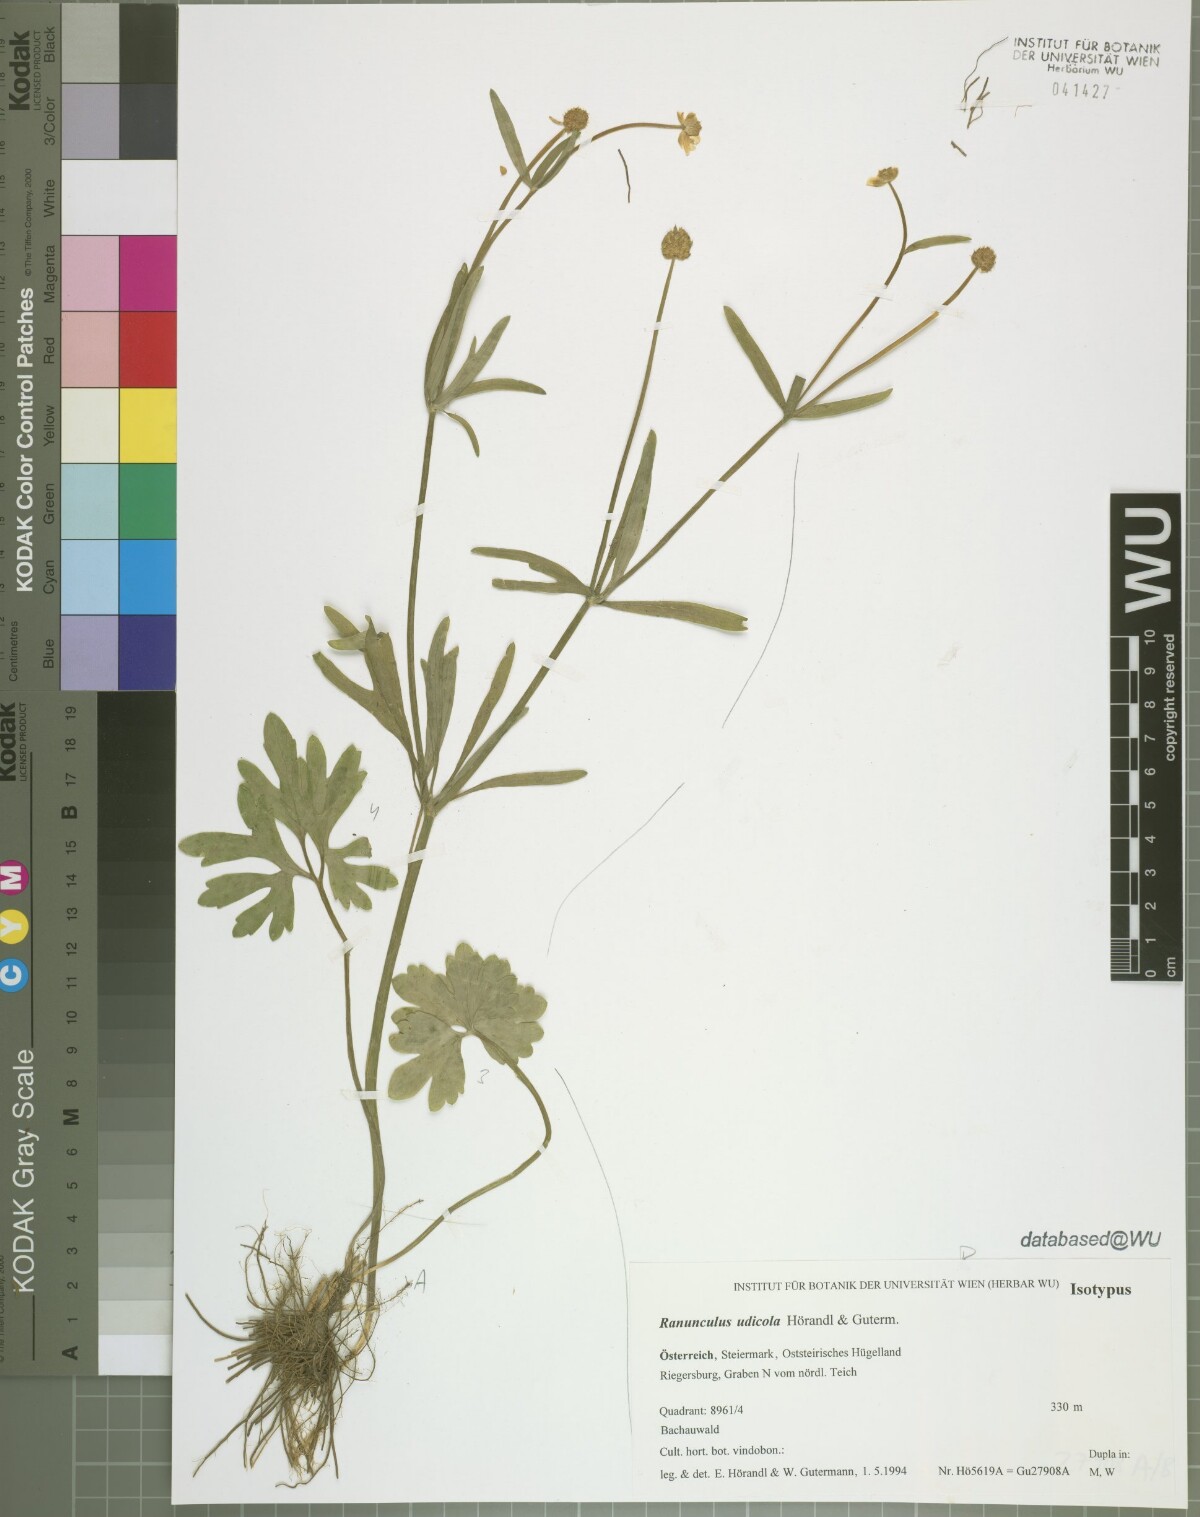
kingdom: Plantae
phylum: Tracheophyta
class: Magnoliopsida
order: Ranunculales
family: Ranunculaceae
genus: Ranunculus
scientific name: Ranunculus udicola
